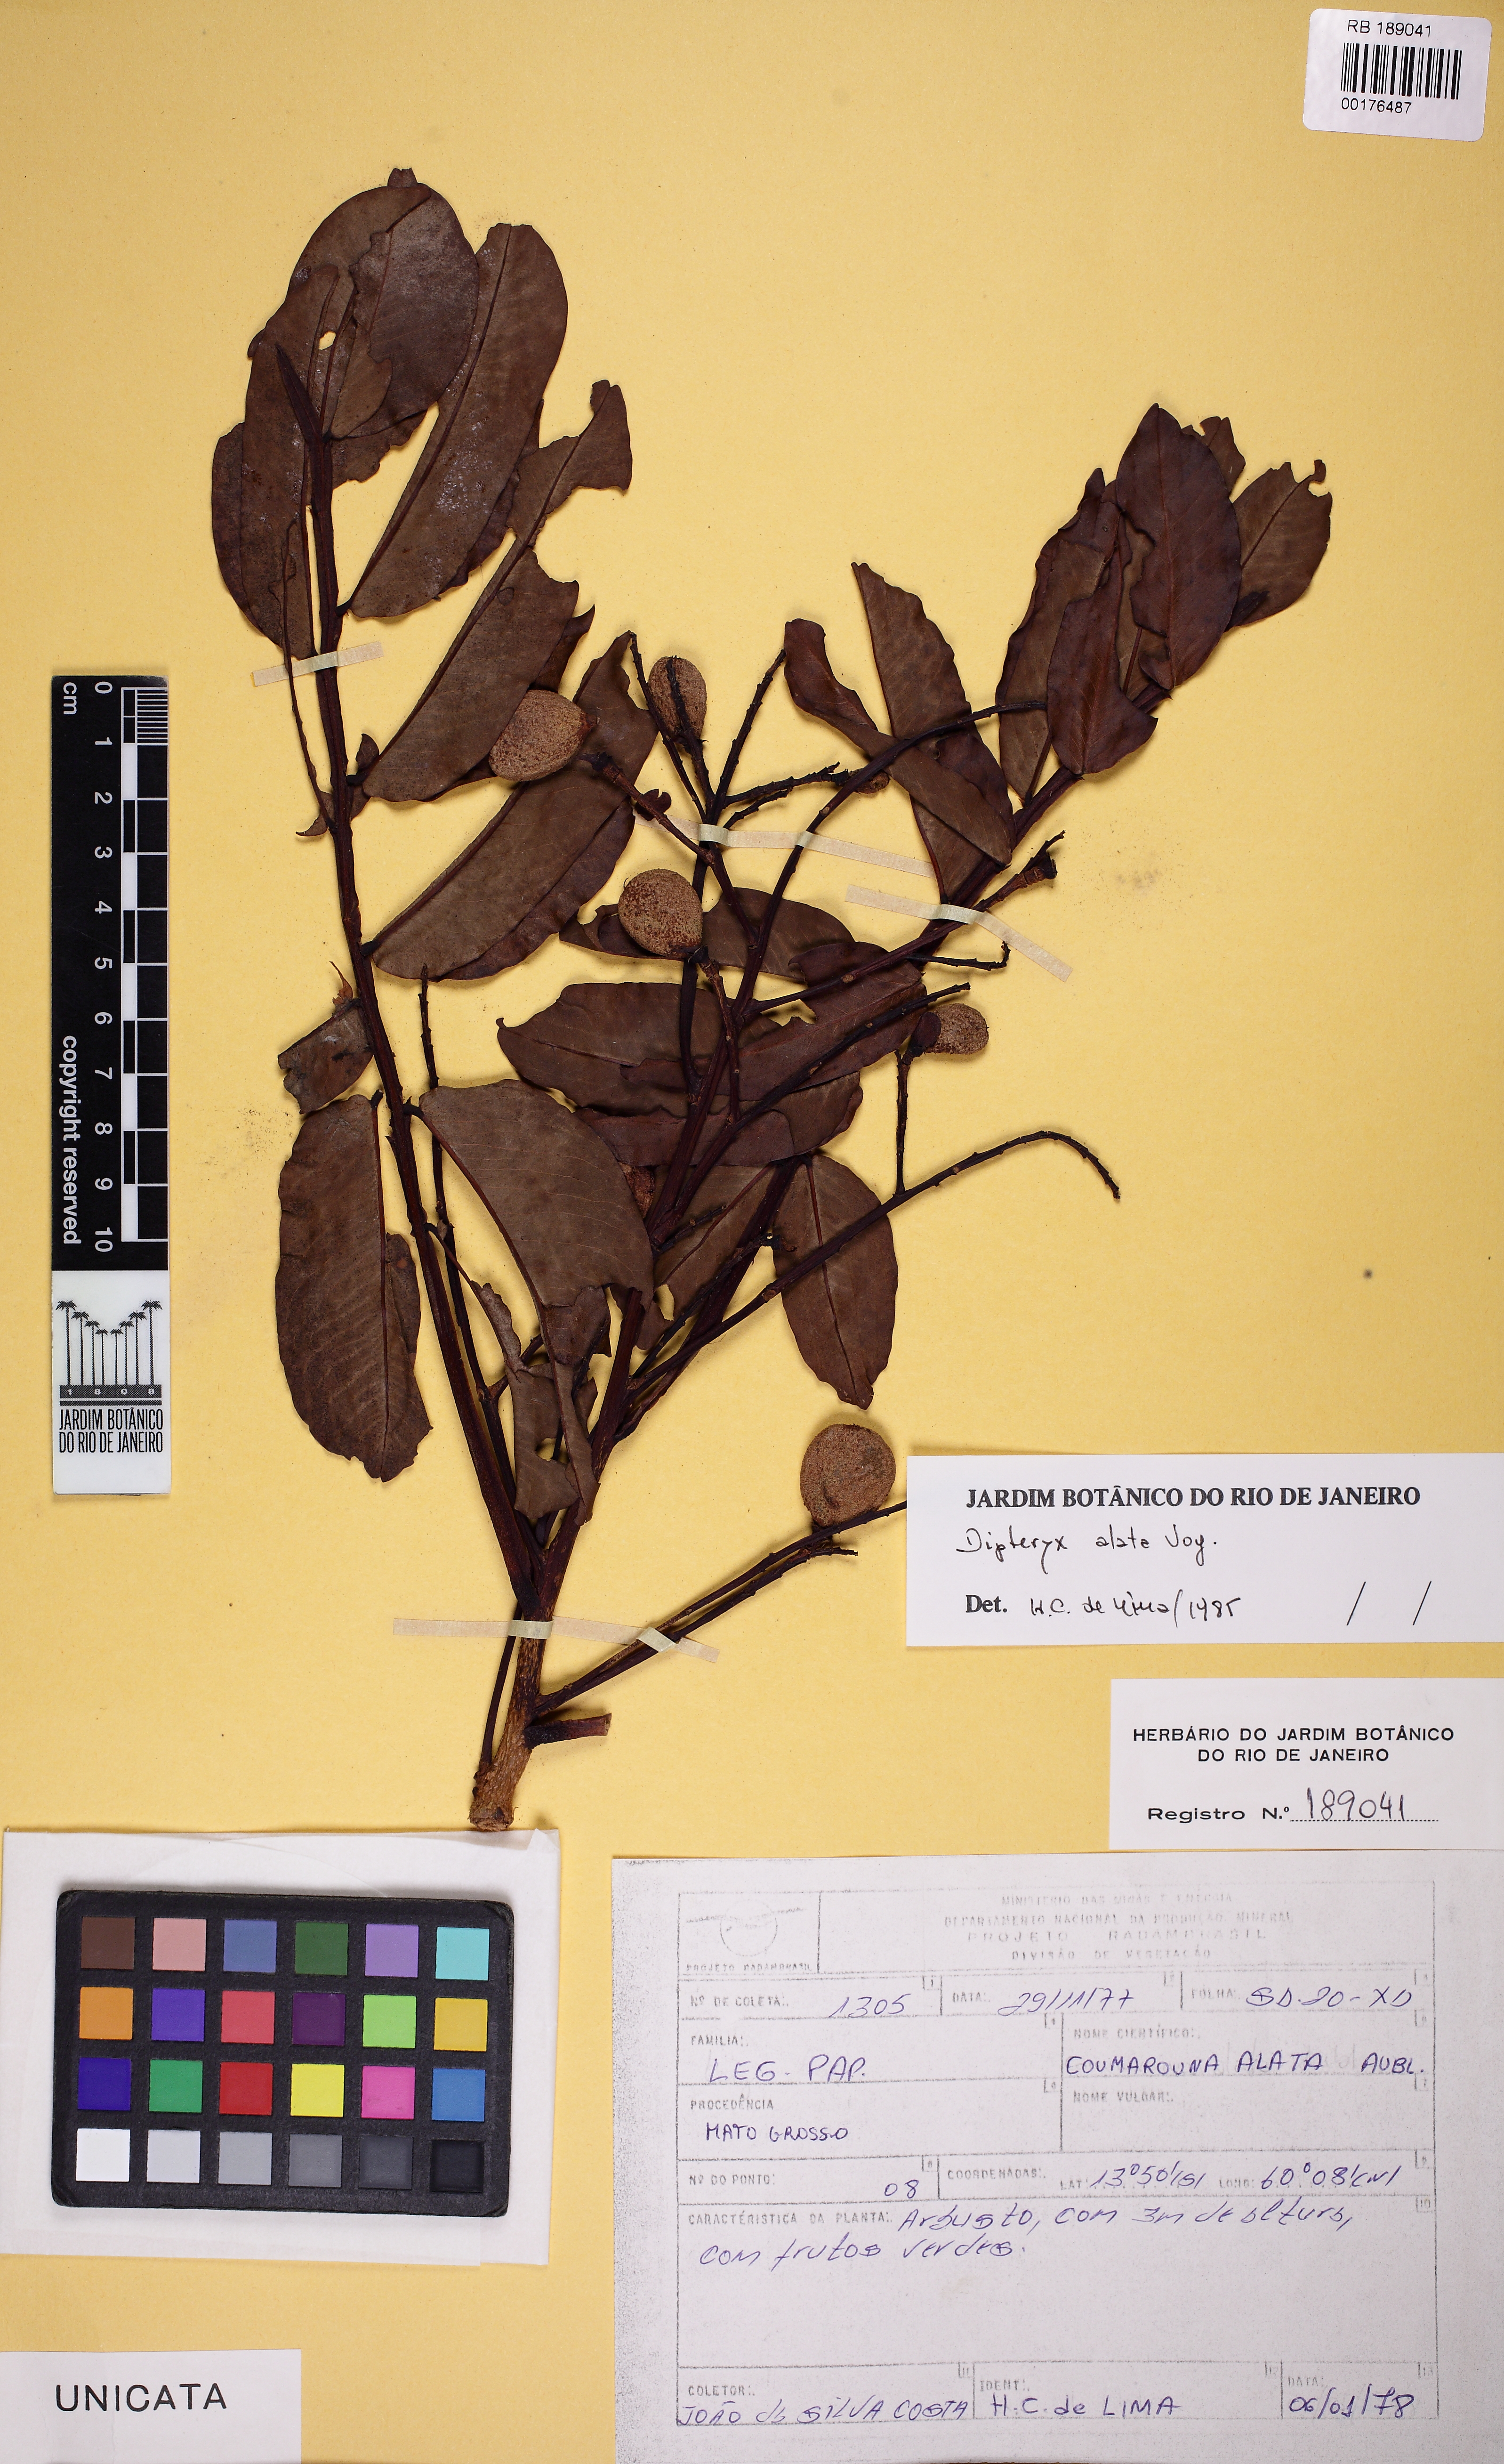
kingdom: Plantae
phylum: Tracheophyta
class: Magnoliopsida
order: Fabales
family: Fabaceae
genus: Dipteryx
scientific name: Dipteryx alata
